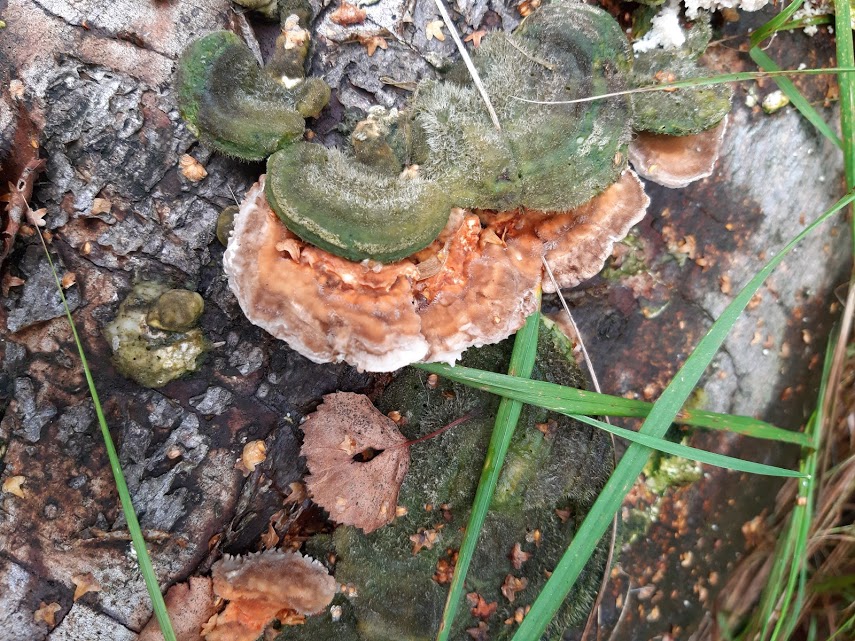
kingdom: Fungi
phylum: Basidiomycota
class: Agaricomycetes
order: Polyporales
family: Polyporaceae
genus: Lenzites
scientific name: Lenzites betulinus
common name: birke-læderporesvamp
